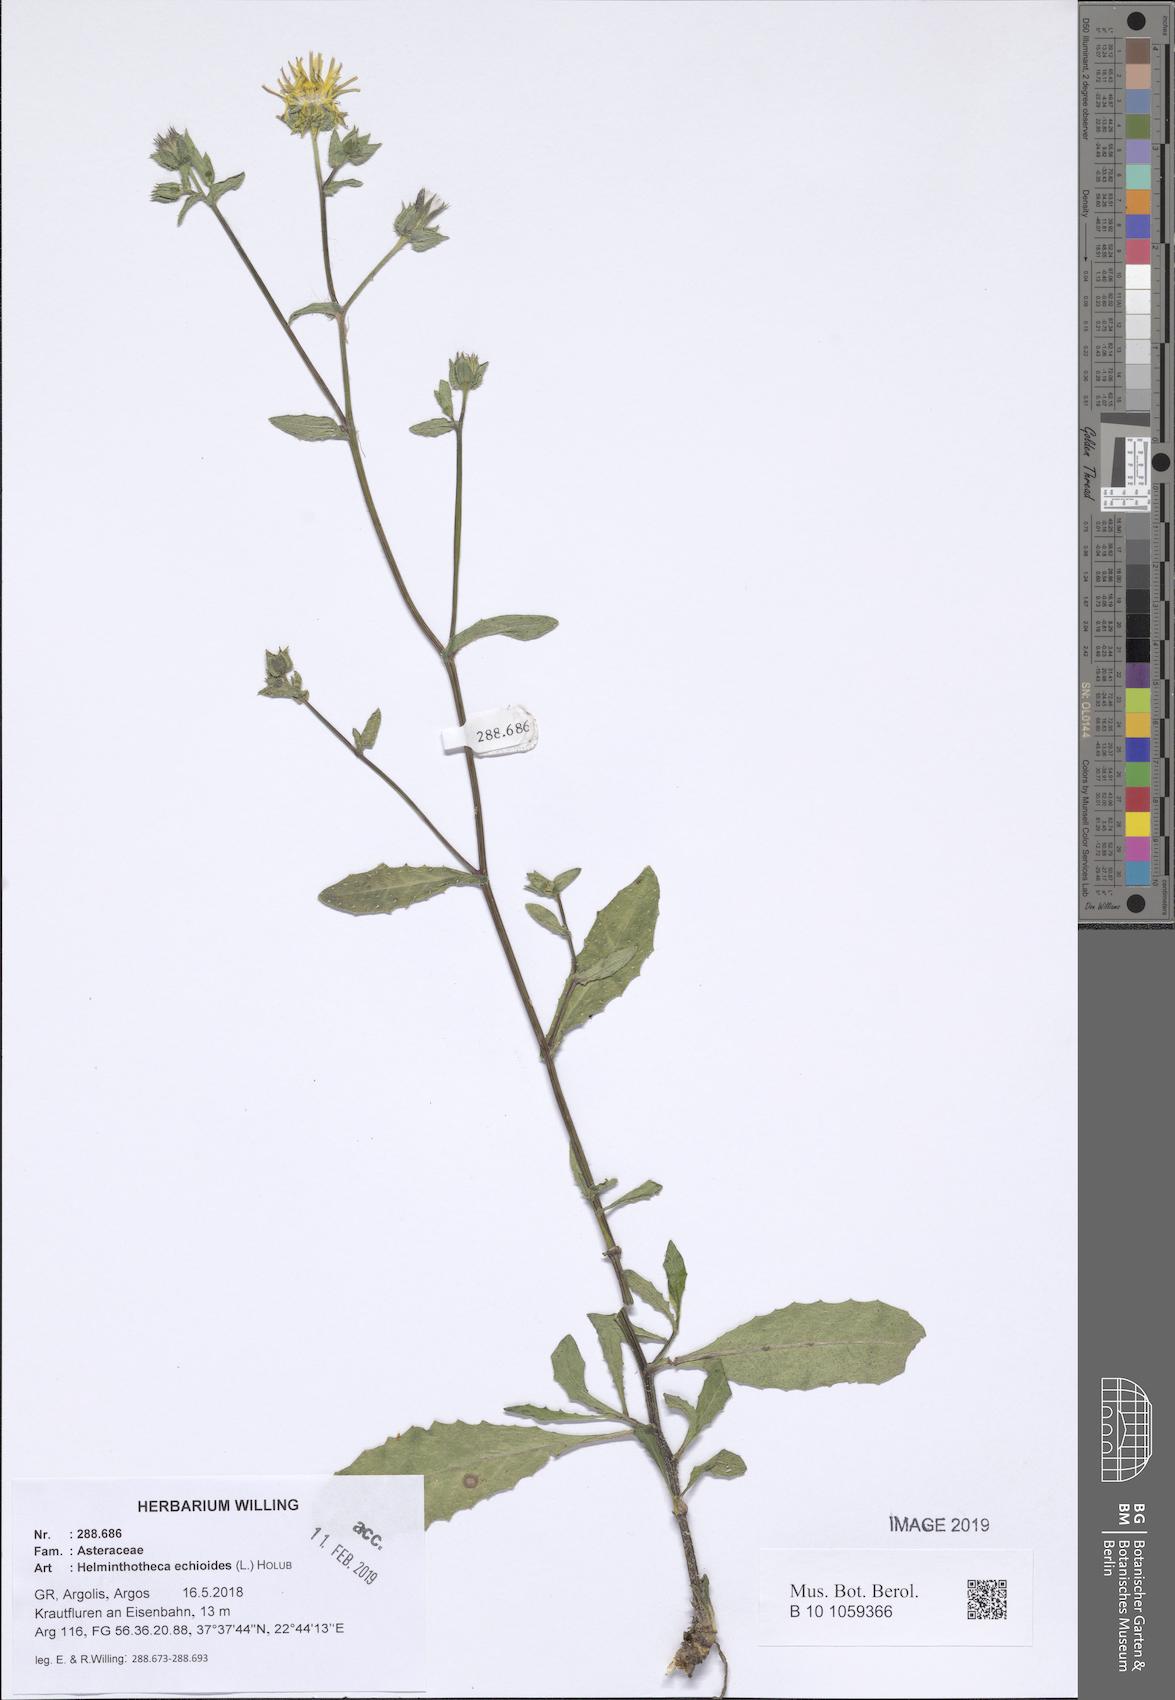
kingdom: Plantae
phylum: Tracheophyta
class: Magnoliopsida
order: Asterales
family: Asteraceae
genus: Helminthotheca
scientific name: Helminthotheca echioides
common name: Ox-tongue
